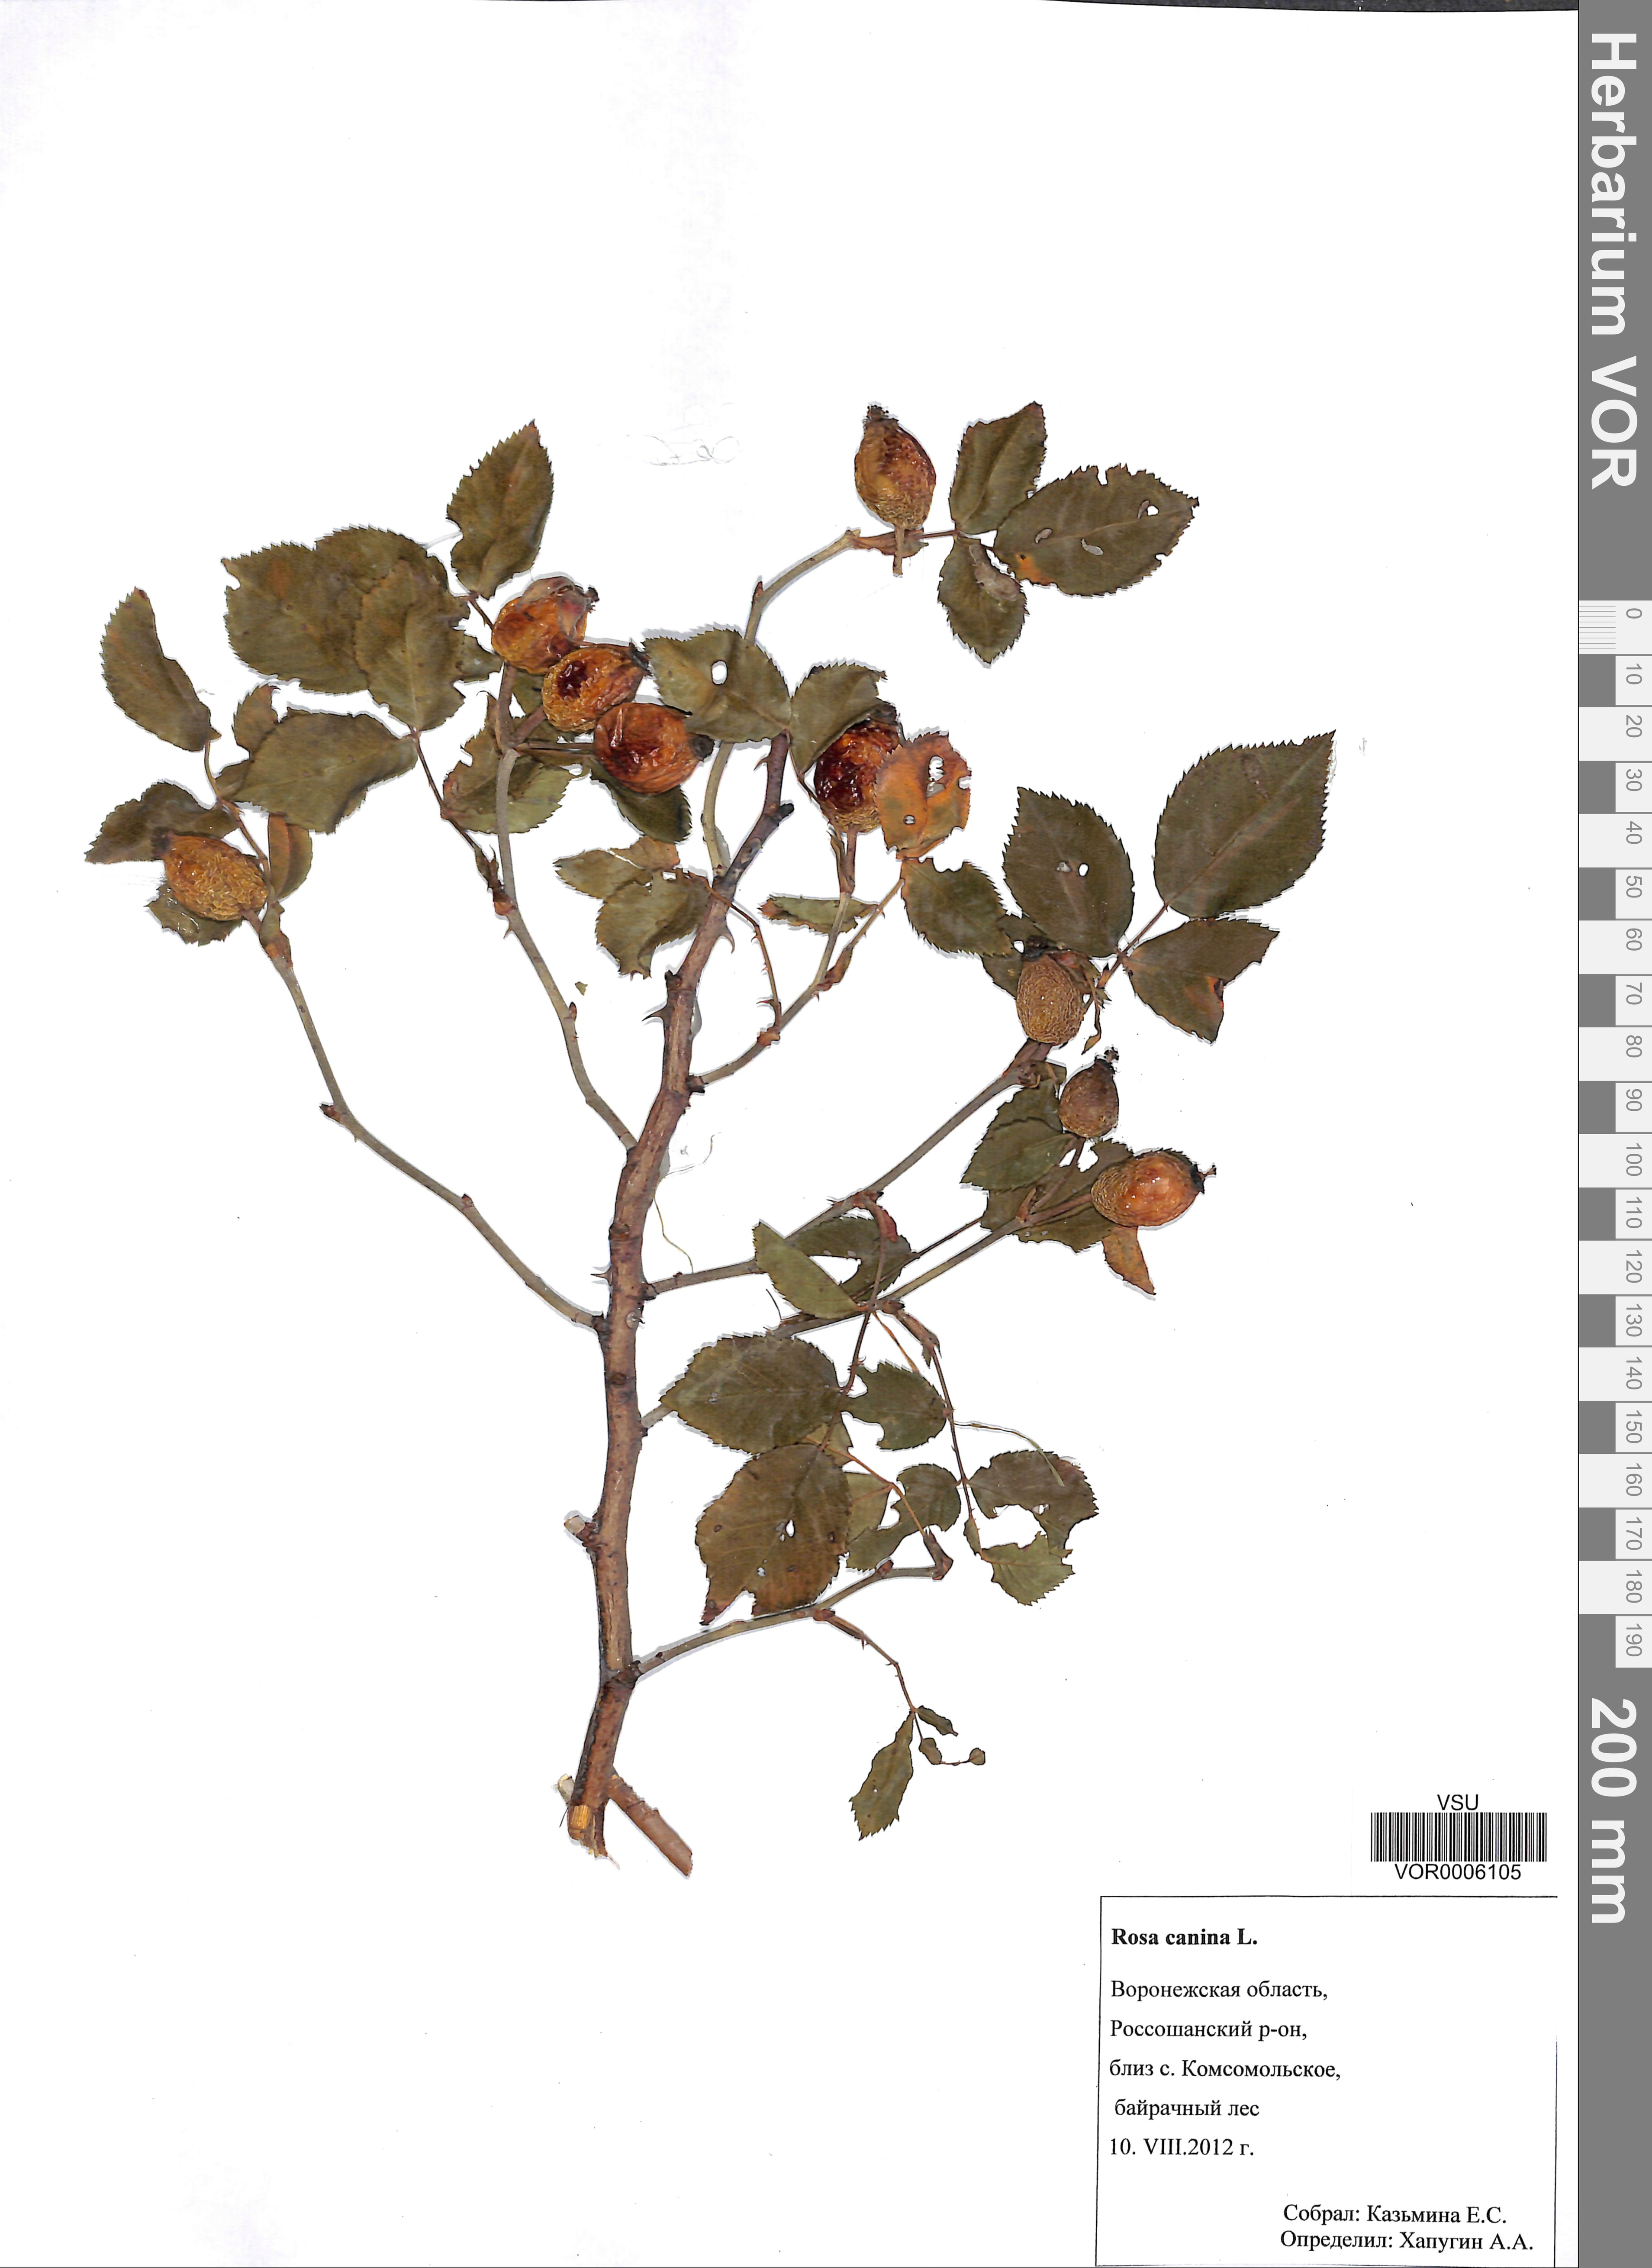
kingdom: Plantae
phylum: Tracheophyta
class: Magnoliopsida
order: Rosales
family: Rosaceae
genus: Rosa
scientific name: Rosa canina
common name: Dog rose
